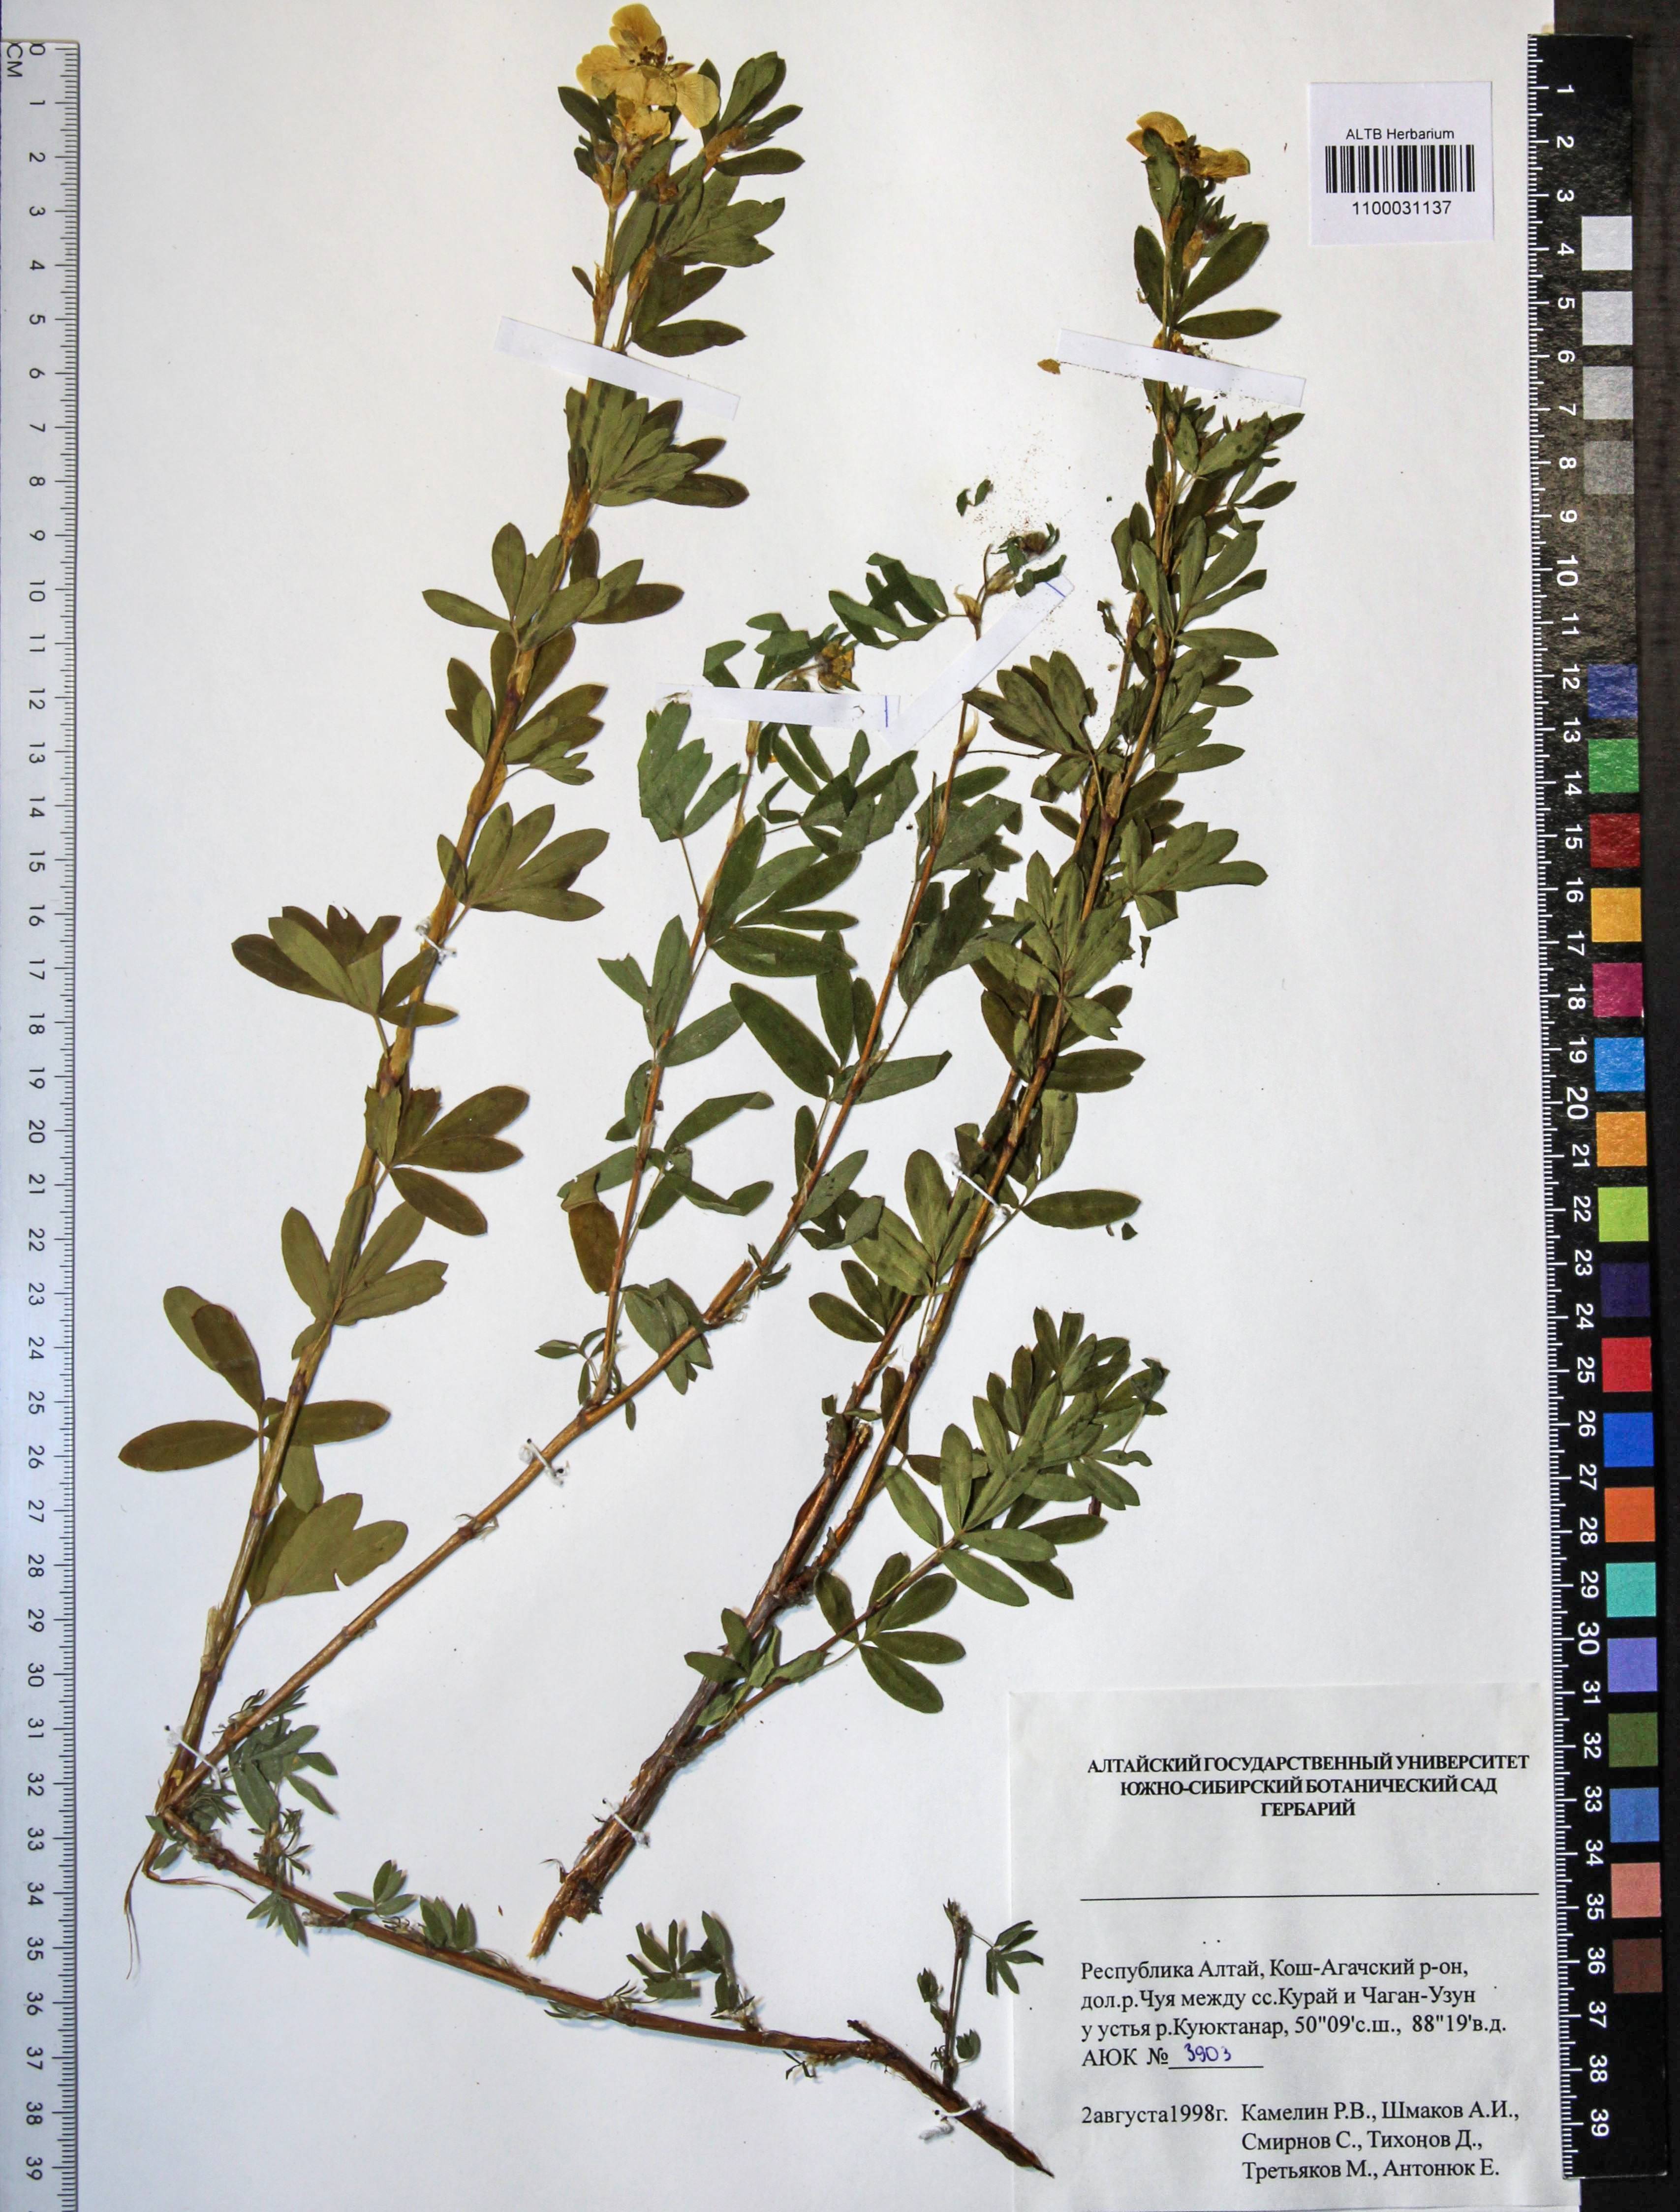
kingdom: Plantae
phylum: Tracheophyta
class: Magnoliopsida
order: Rosales
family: Rosaceae
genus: Dasiphora
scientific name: Dasiphora fruticosa
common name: Shrubby cinquefoil
